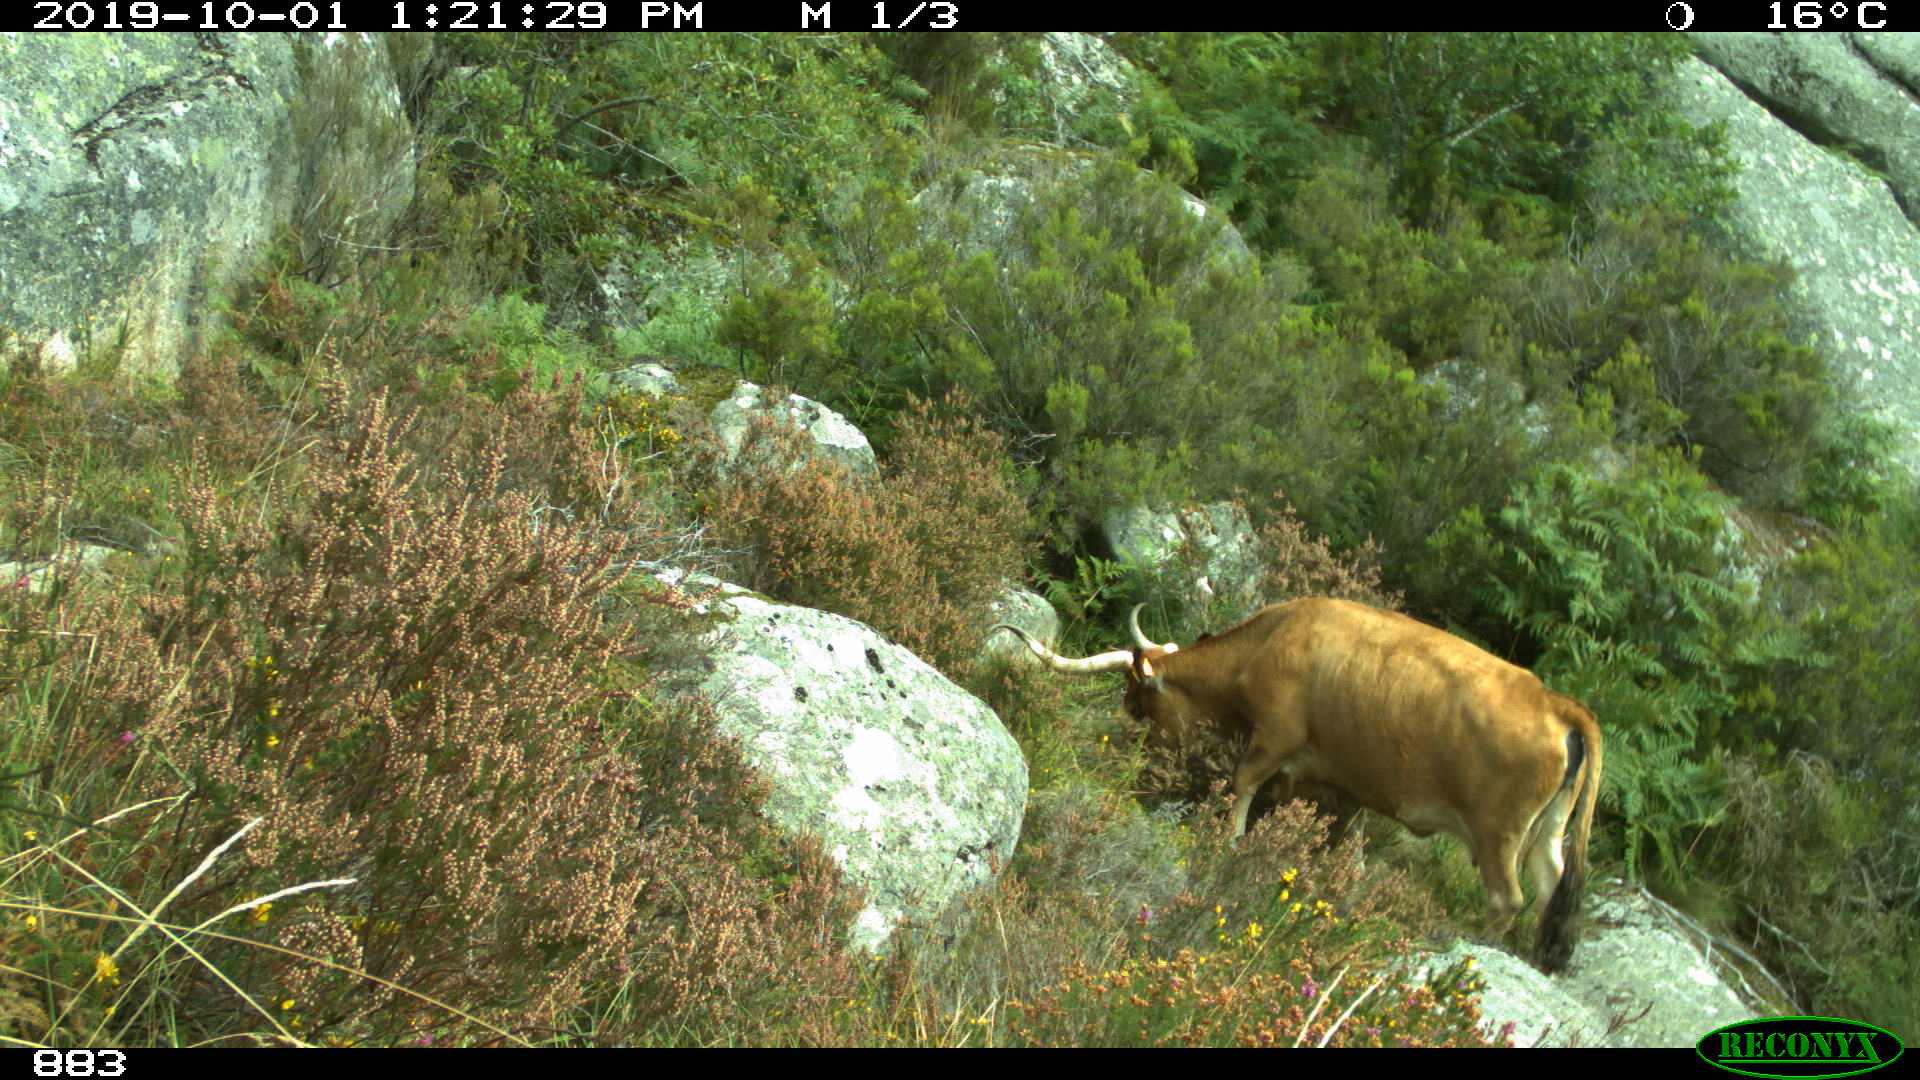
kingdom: Animalia
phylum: Chordata
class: Mammalia
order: Artiodactyla
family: Bovidae
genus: Bos
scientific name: Bos taurus
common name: Domesticated cattle
